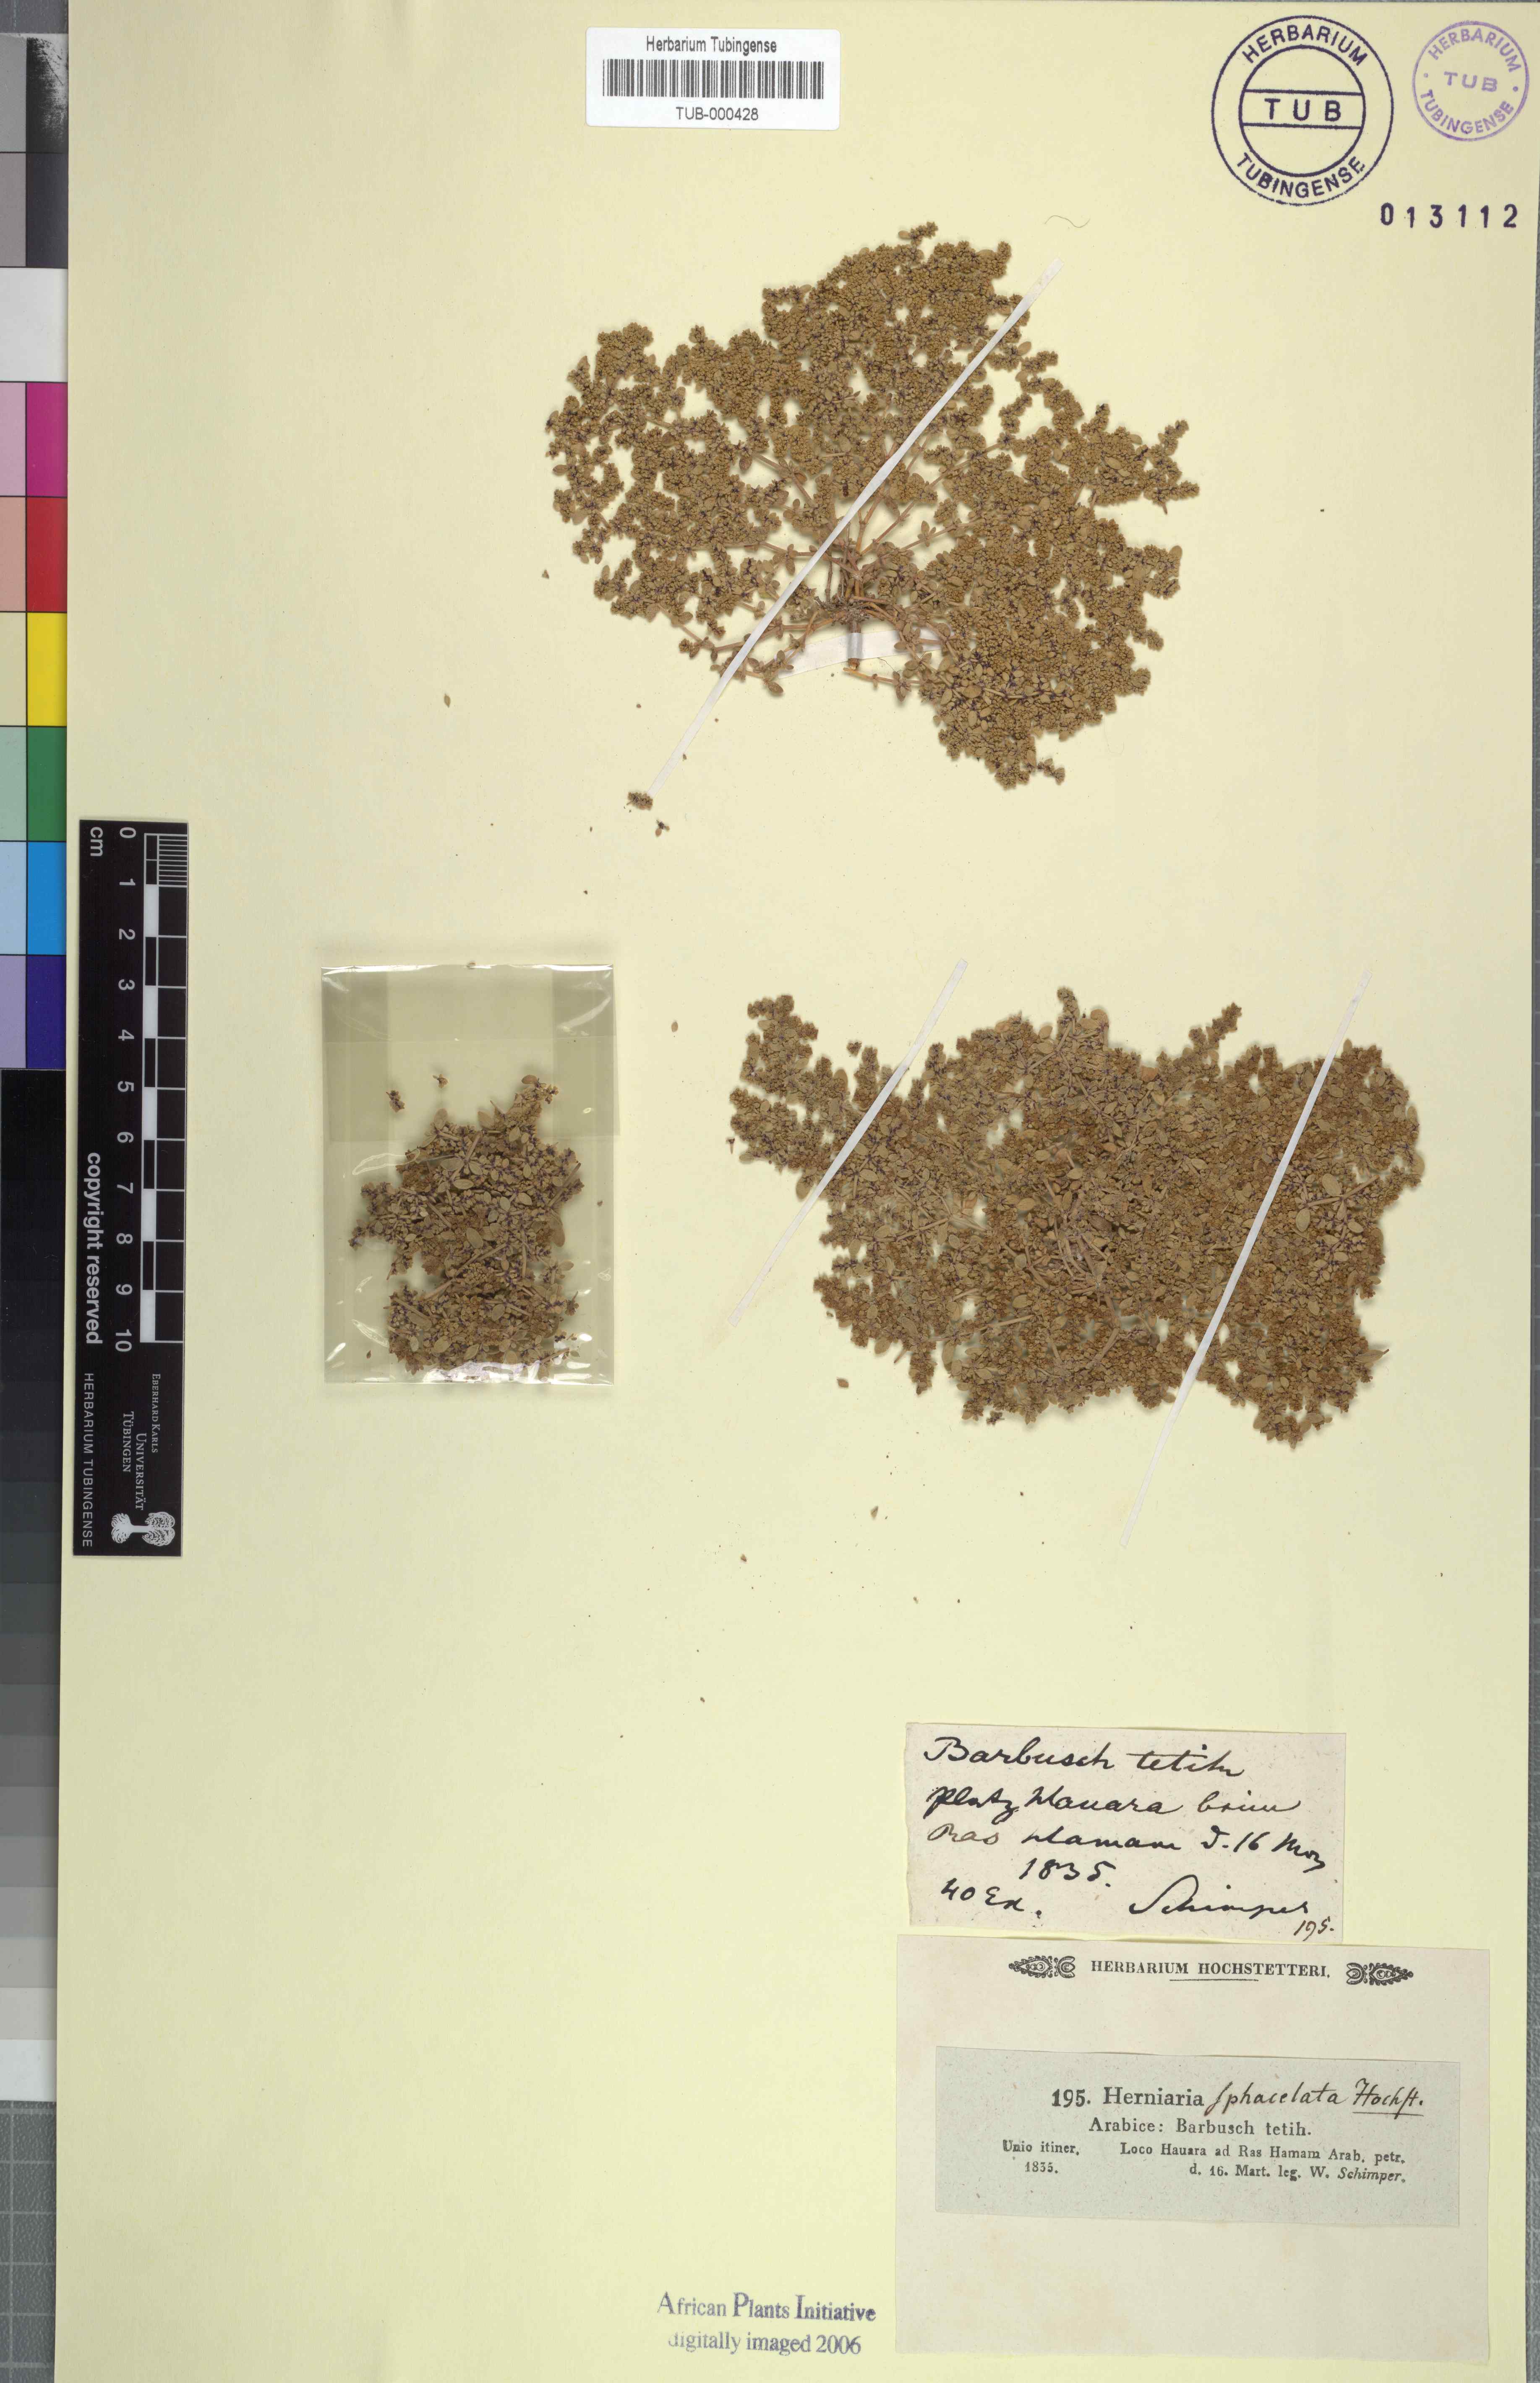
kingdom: Plantae
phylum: Tracheophyta
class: Magnoliopsida
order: Caryophyllales
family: Caryophyllaceae
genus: Herniaria
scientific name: Herniaria hemistemon
